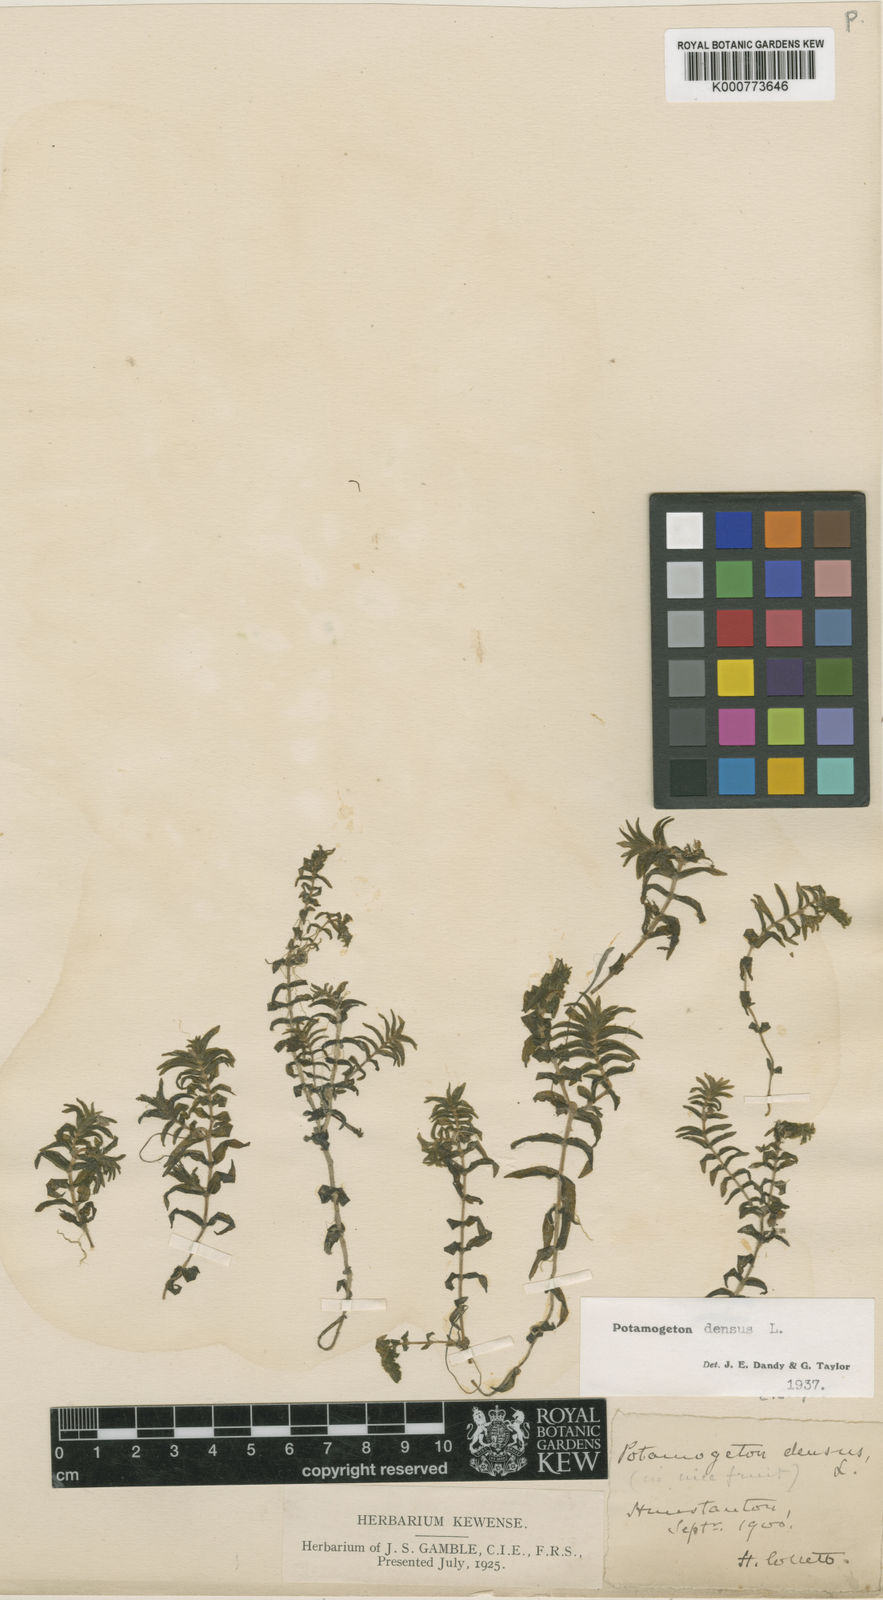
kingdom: Plantae
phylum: Tracheophyta
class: Liliopsida
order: Alismatales
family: Potamogetonaceae
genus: Groenlandia
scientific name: Groenlandia densa
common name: Opposite-leaved pondweed
